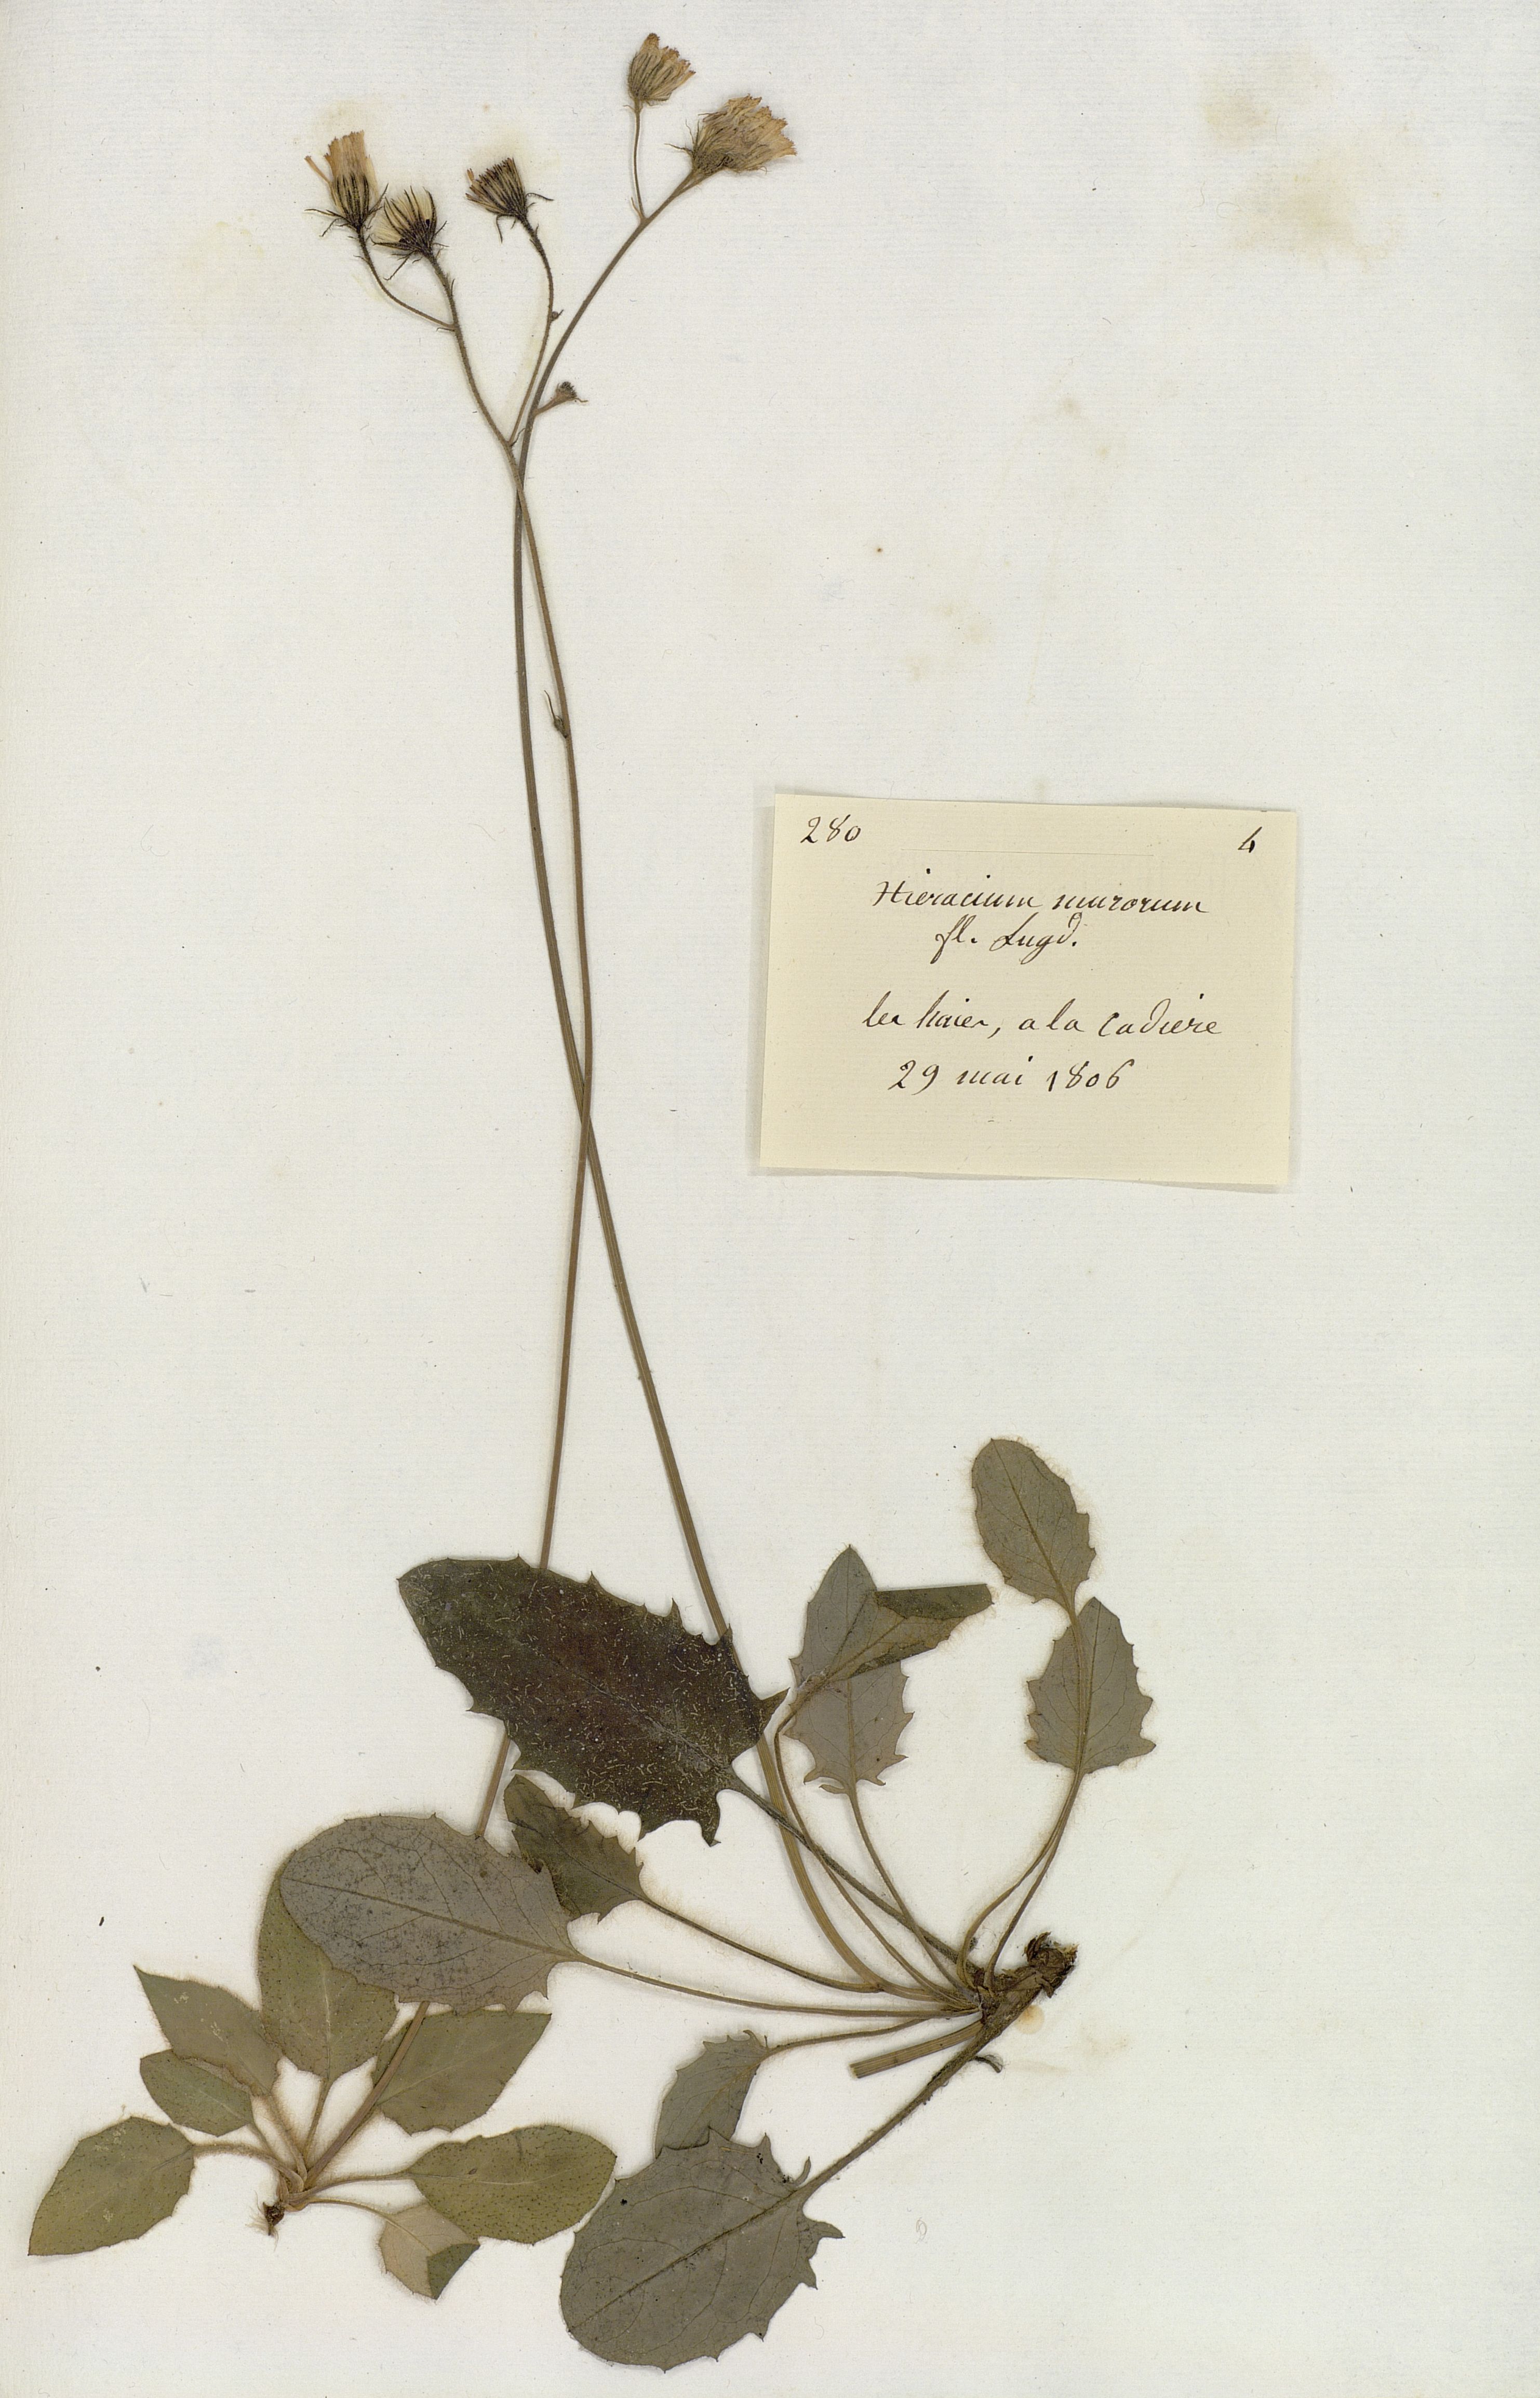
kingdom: Plantae
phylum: Tracheophyta
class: Magnoliopsida
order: Asterales
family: Asteraceae
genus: Hieracium
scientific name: Hieracium murorum
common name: Wall hawkweed
